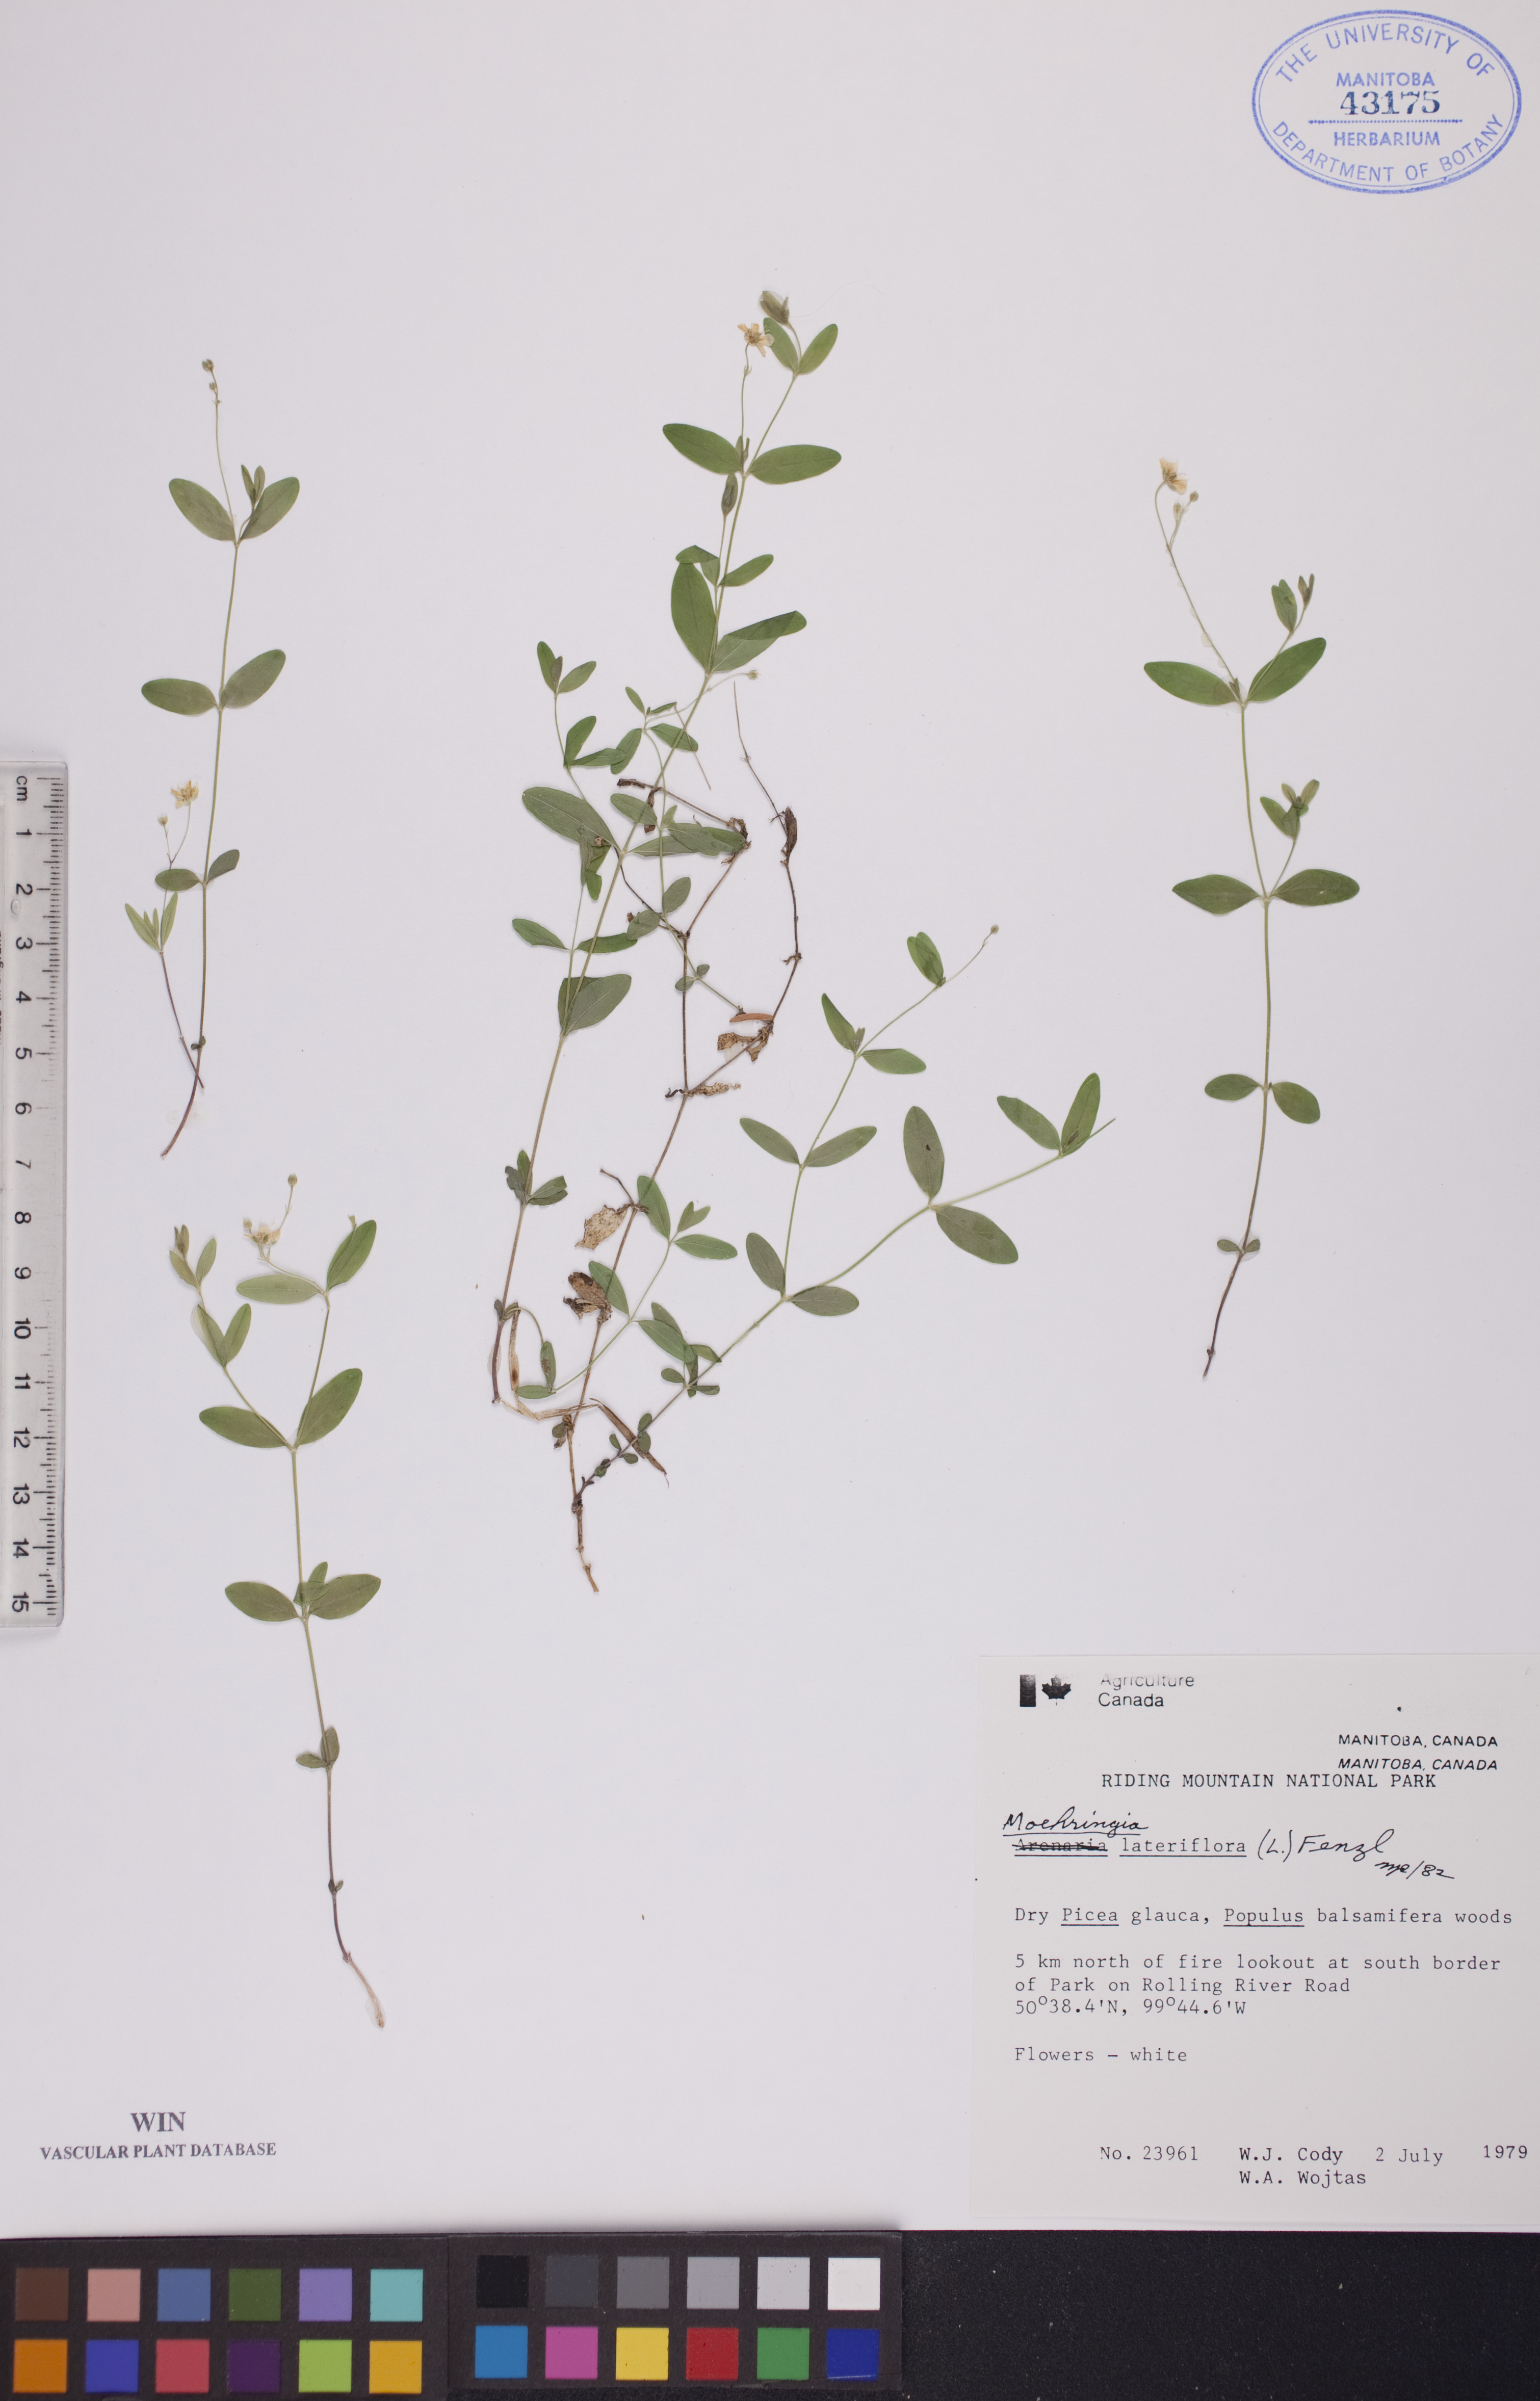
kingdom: Plantae
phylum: Tracheophyta
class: Magnoliopsida
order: Caryophyllales
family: Caryophyllaceae
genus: Moehringia
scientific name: Moehringia lateriflora
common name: Blunt-leaved sandwort
